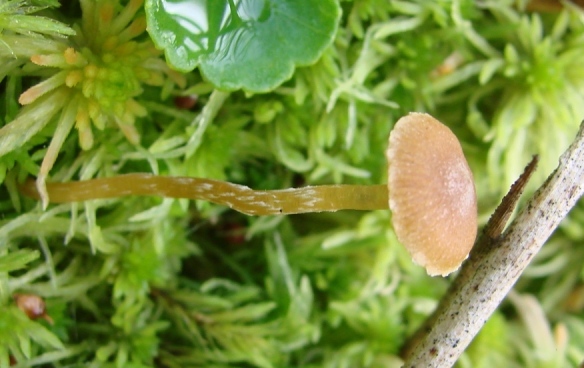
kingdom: Fungi
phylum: Basidiomycota
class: Agaricomycetes
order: Agaricales
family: Hymenogastraceae
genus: Galerina
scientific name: Galerina paludosa
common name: mose-hjelmhat
